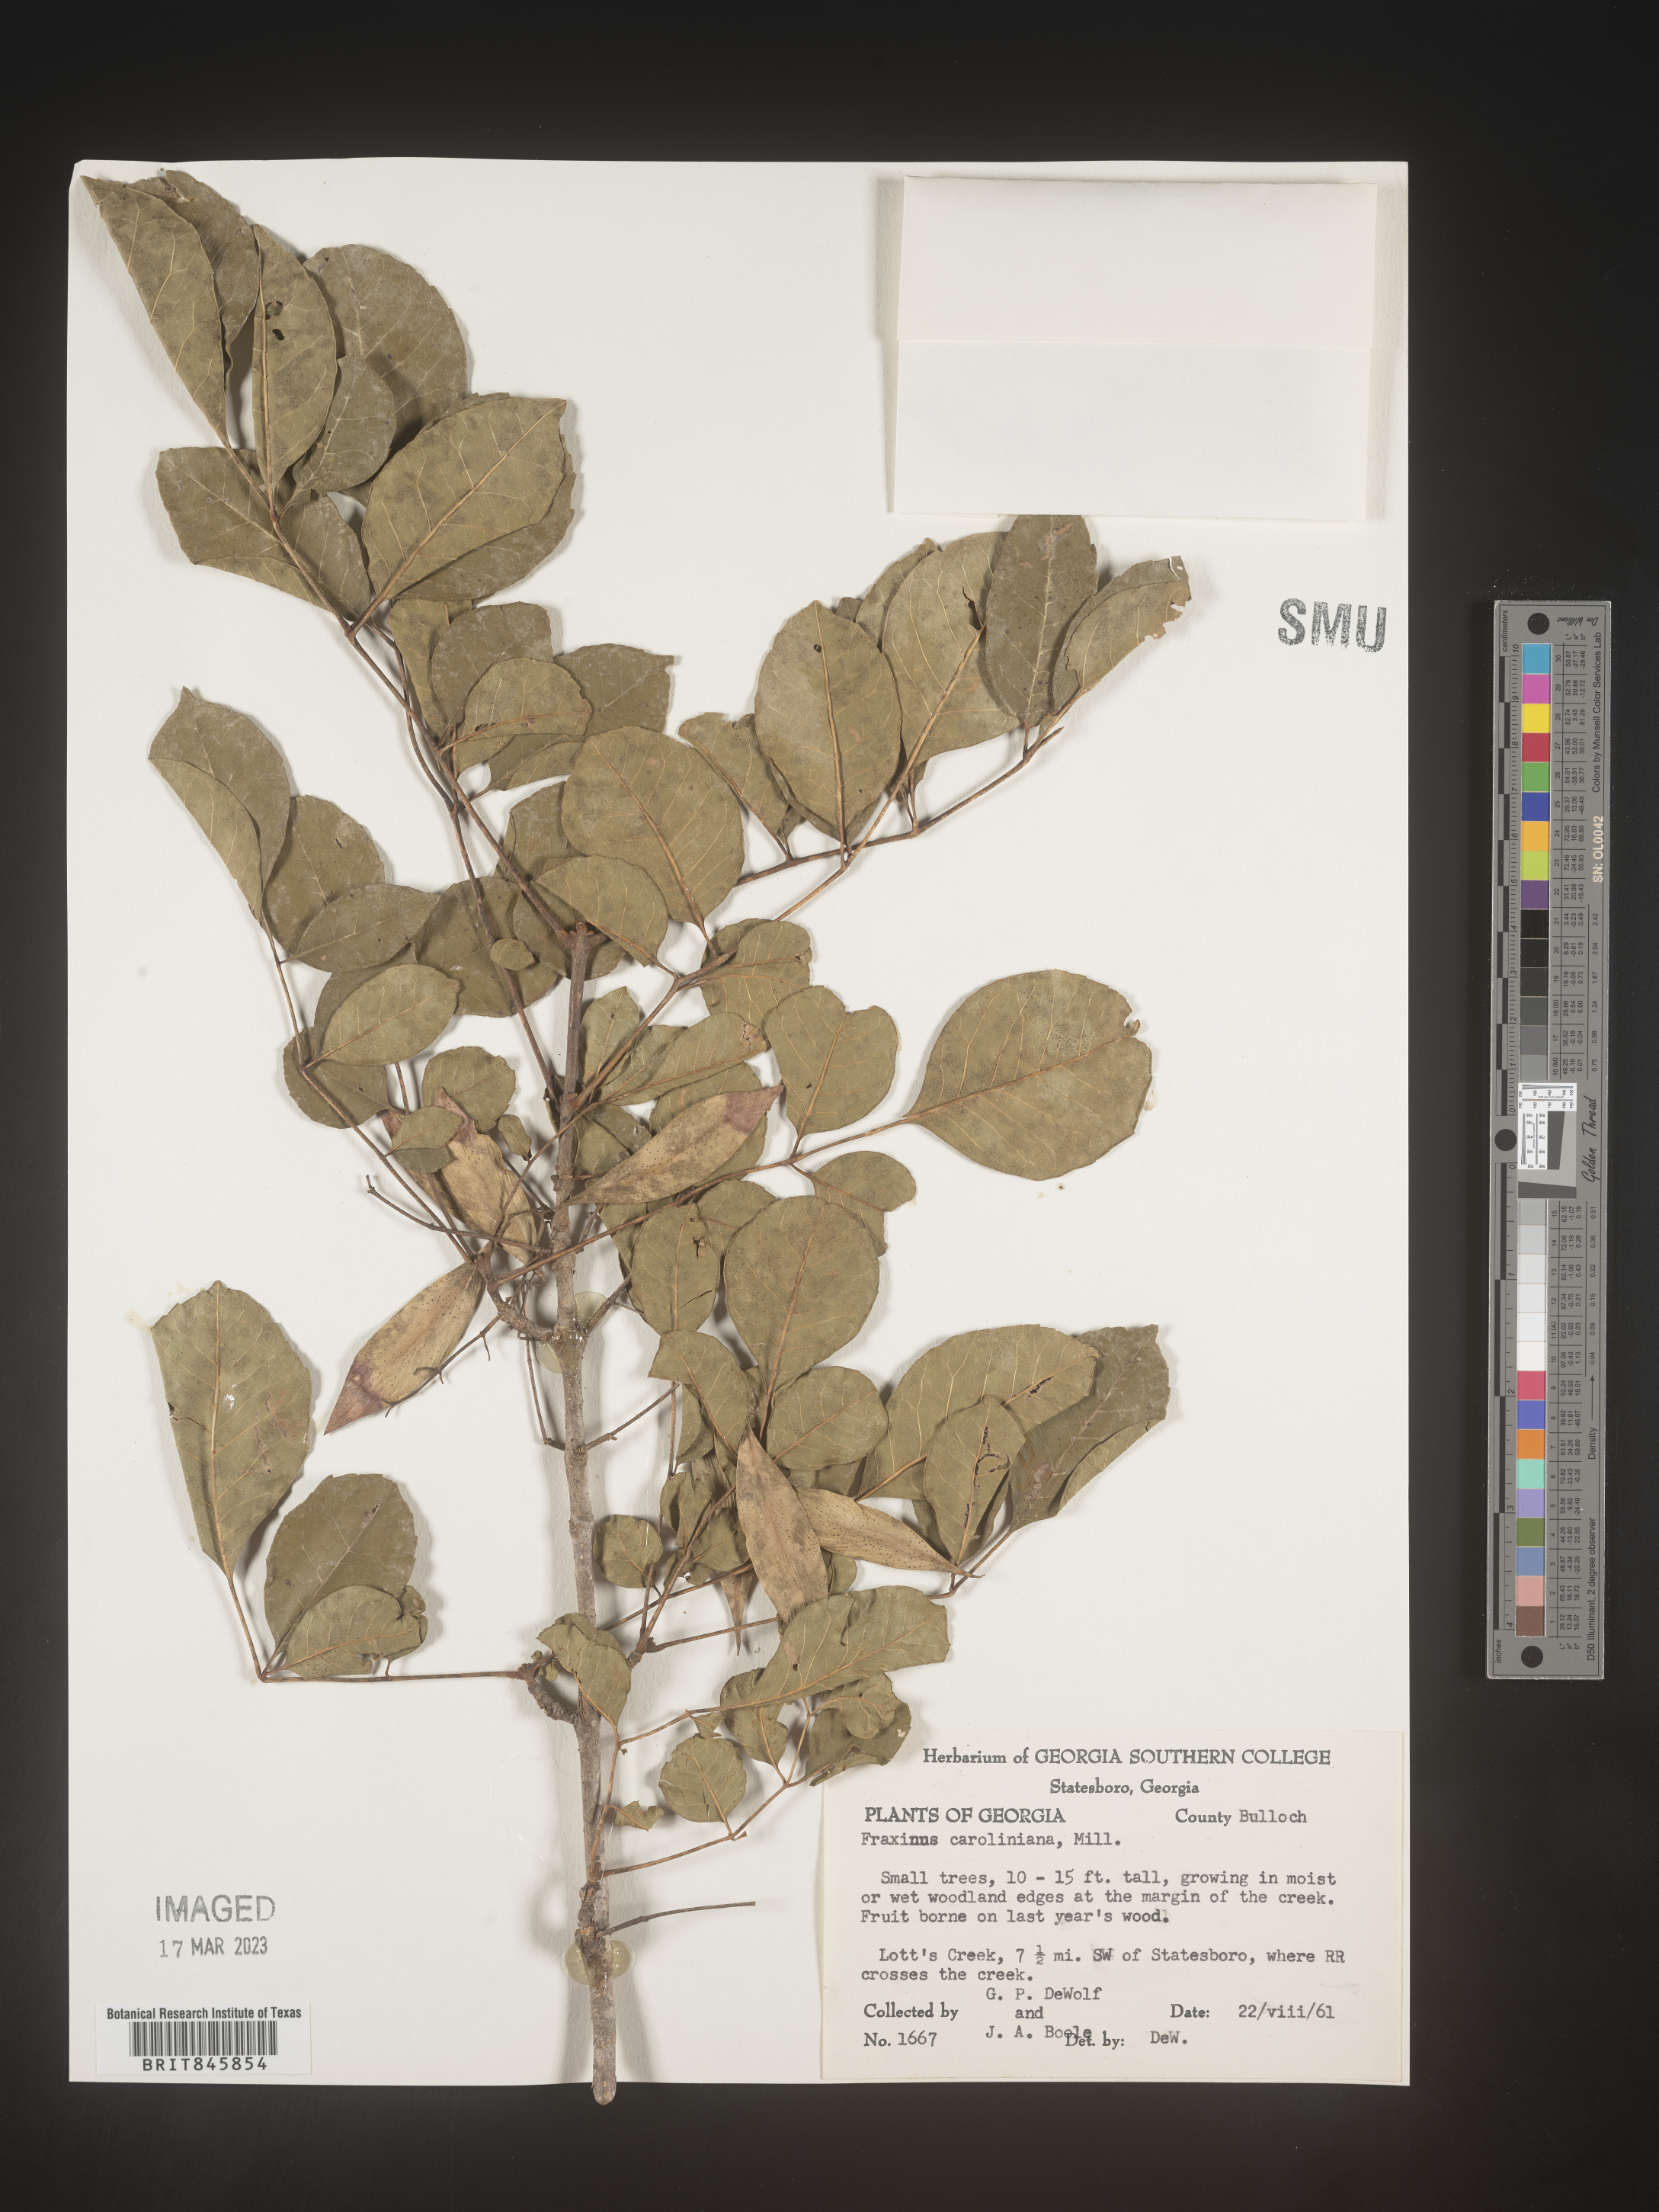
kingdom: Plantae
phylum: Tracheophyta
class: Magnoliopsida
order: Lamiales
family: Oleaceae
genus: Fraxinus
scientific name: Fraxinus caroliniana
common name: Carolina ash
